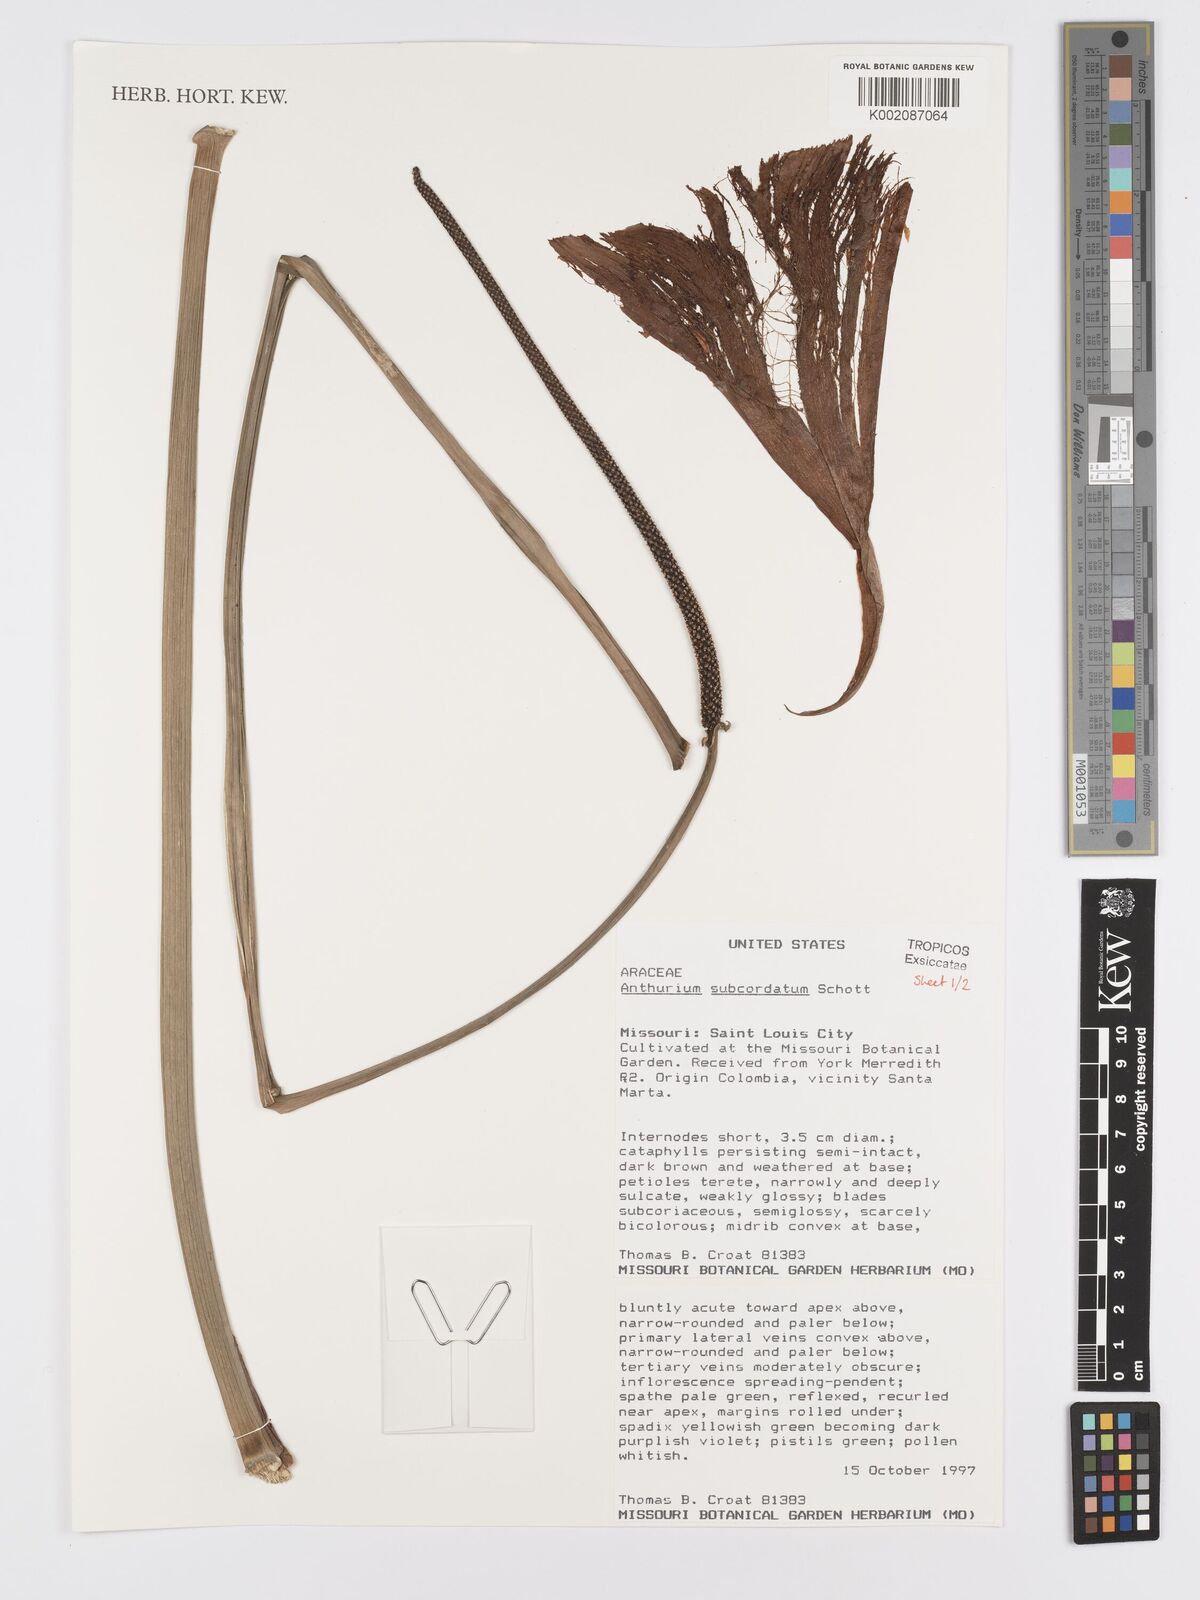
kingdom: Plantae
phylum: Tracheophyta
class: Liliopsida
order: Alismatales
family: Araceae
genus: Anthurium
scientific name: Anthurium subcordatum
